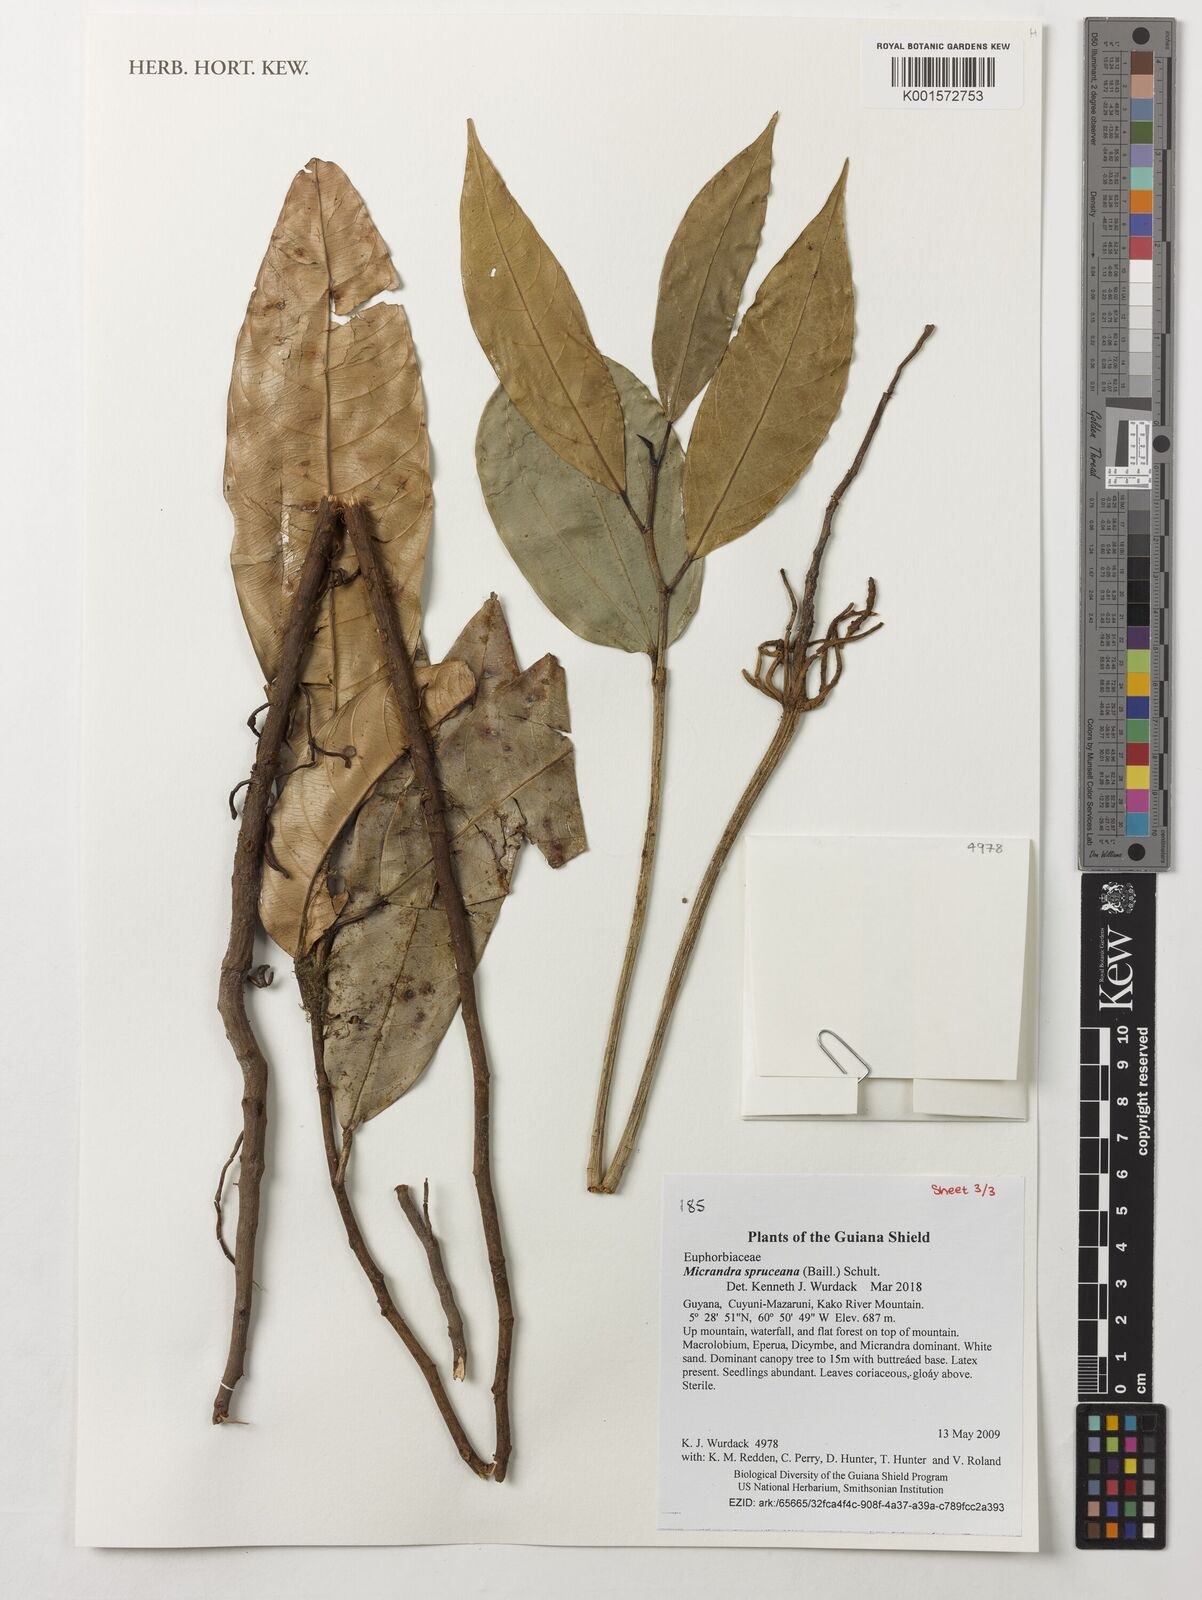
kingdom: Plantae
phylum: Tracheophyta
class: Magnoliopsida
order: Malpighiales
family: Euphorbiaceae
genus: Micrandra
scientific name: Micrandra spruceana
